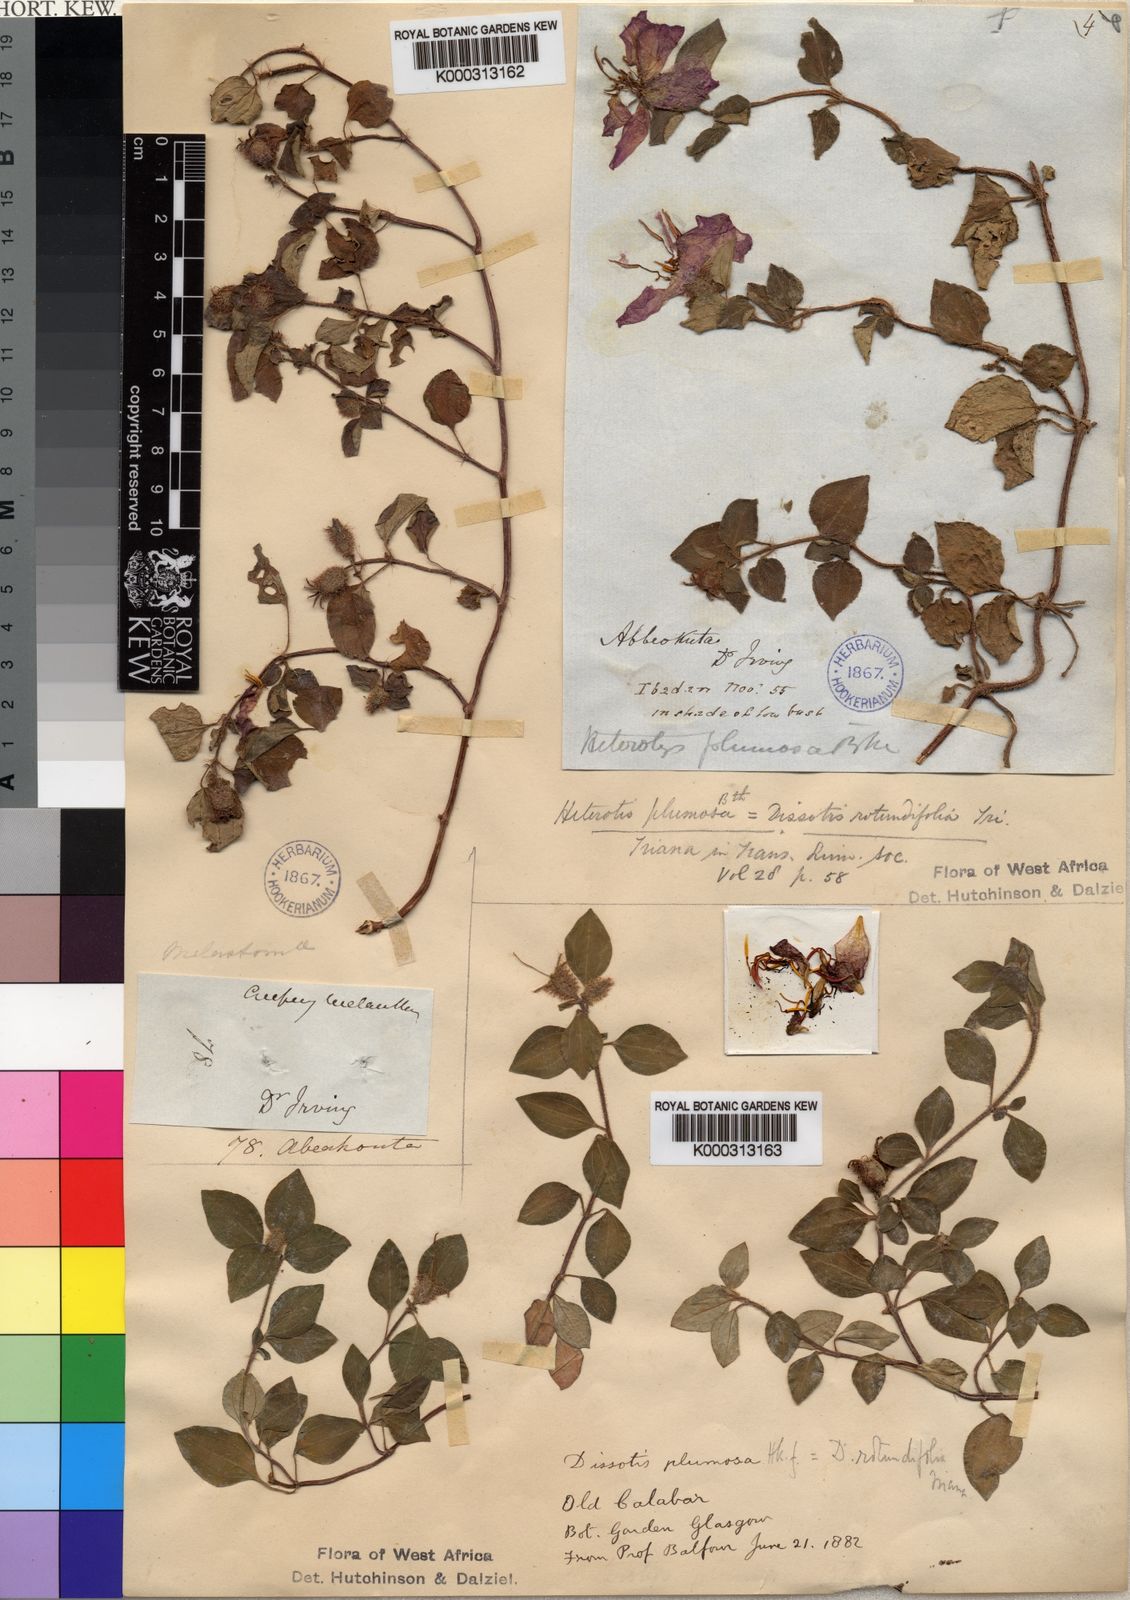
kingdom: Plantae
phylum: Tracheophyta
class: Magnoliopsida
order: Myrtales
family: Melastomataceae
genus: Heterotis
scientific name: Heterotis
